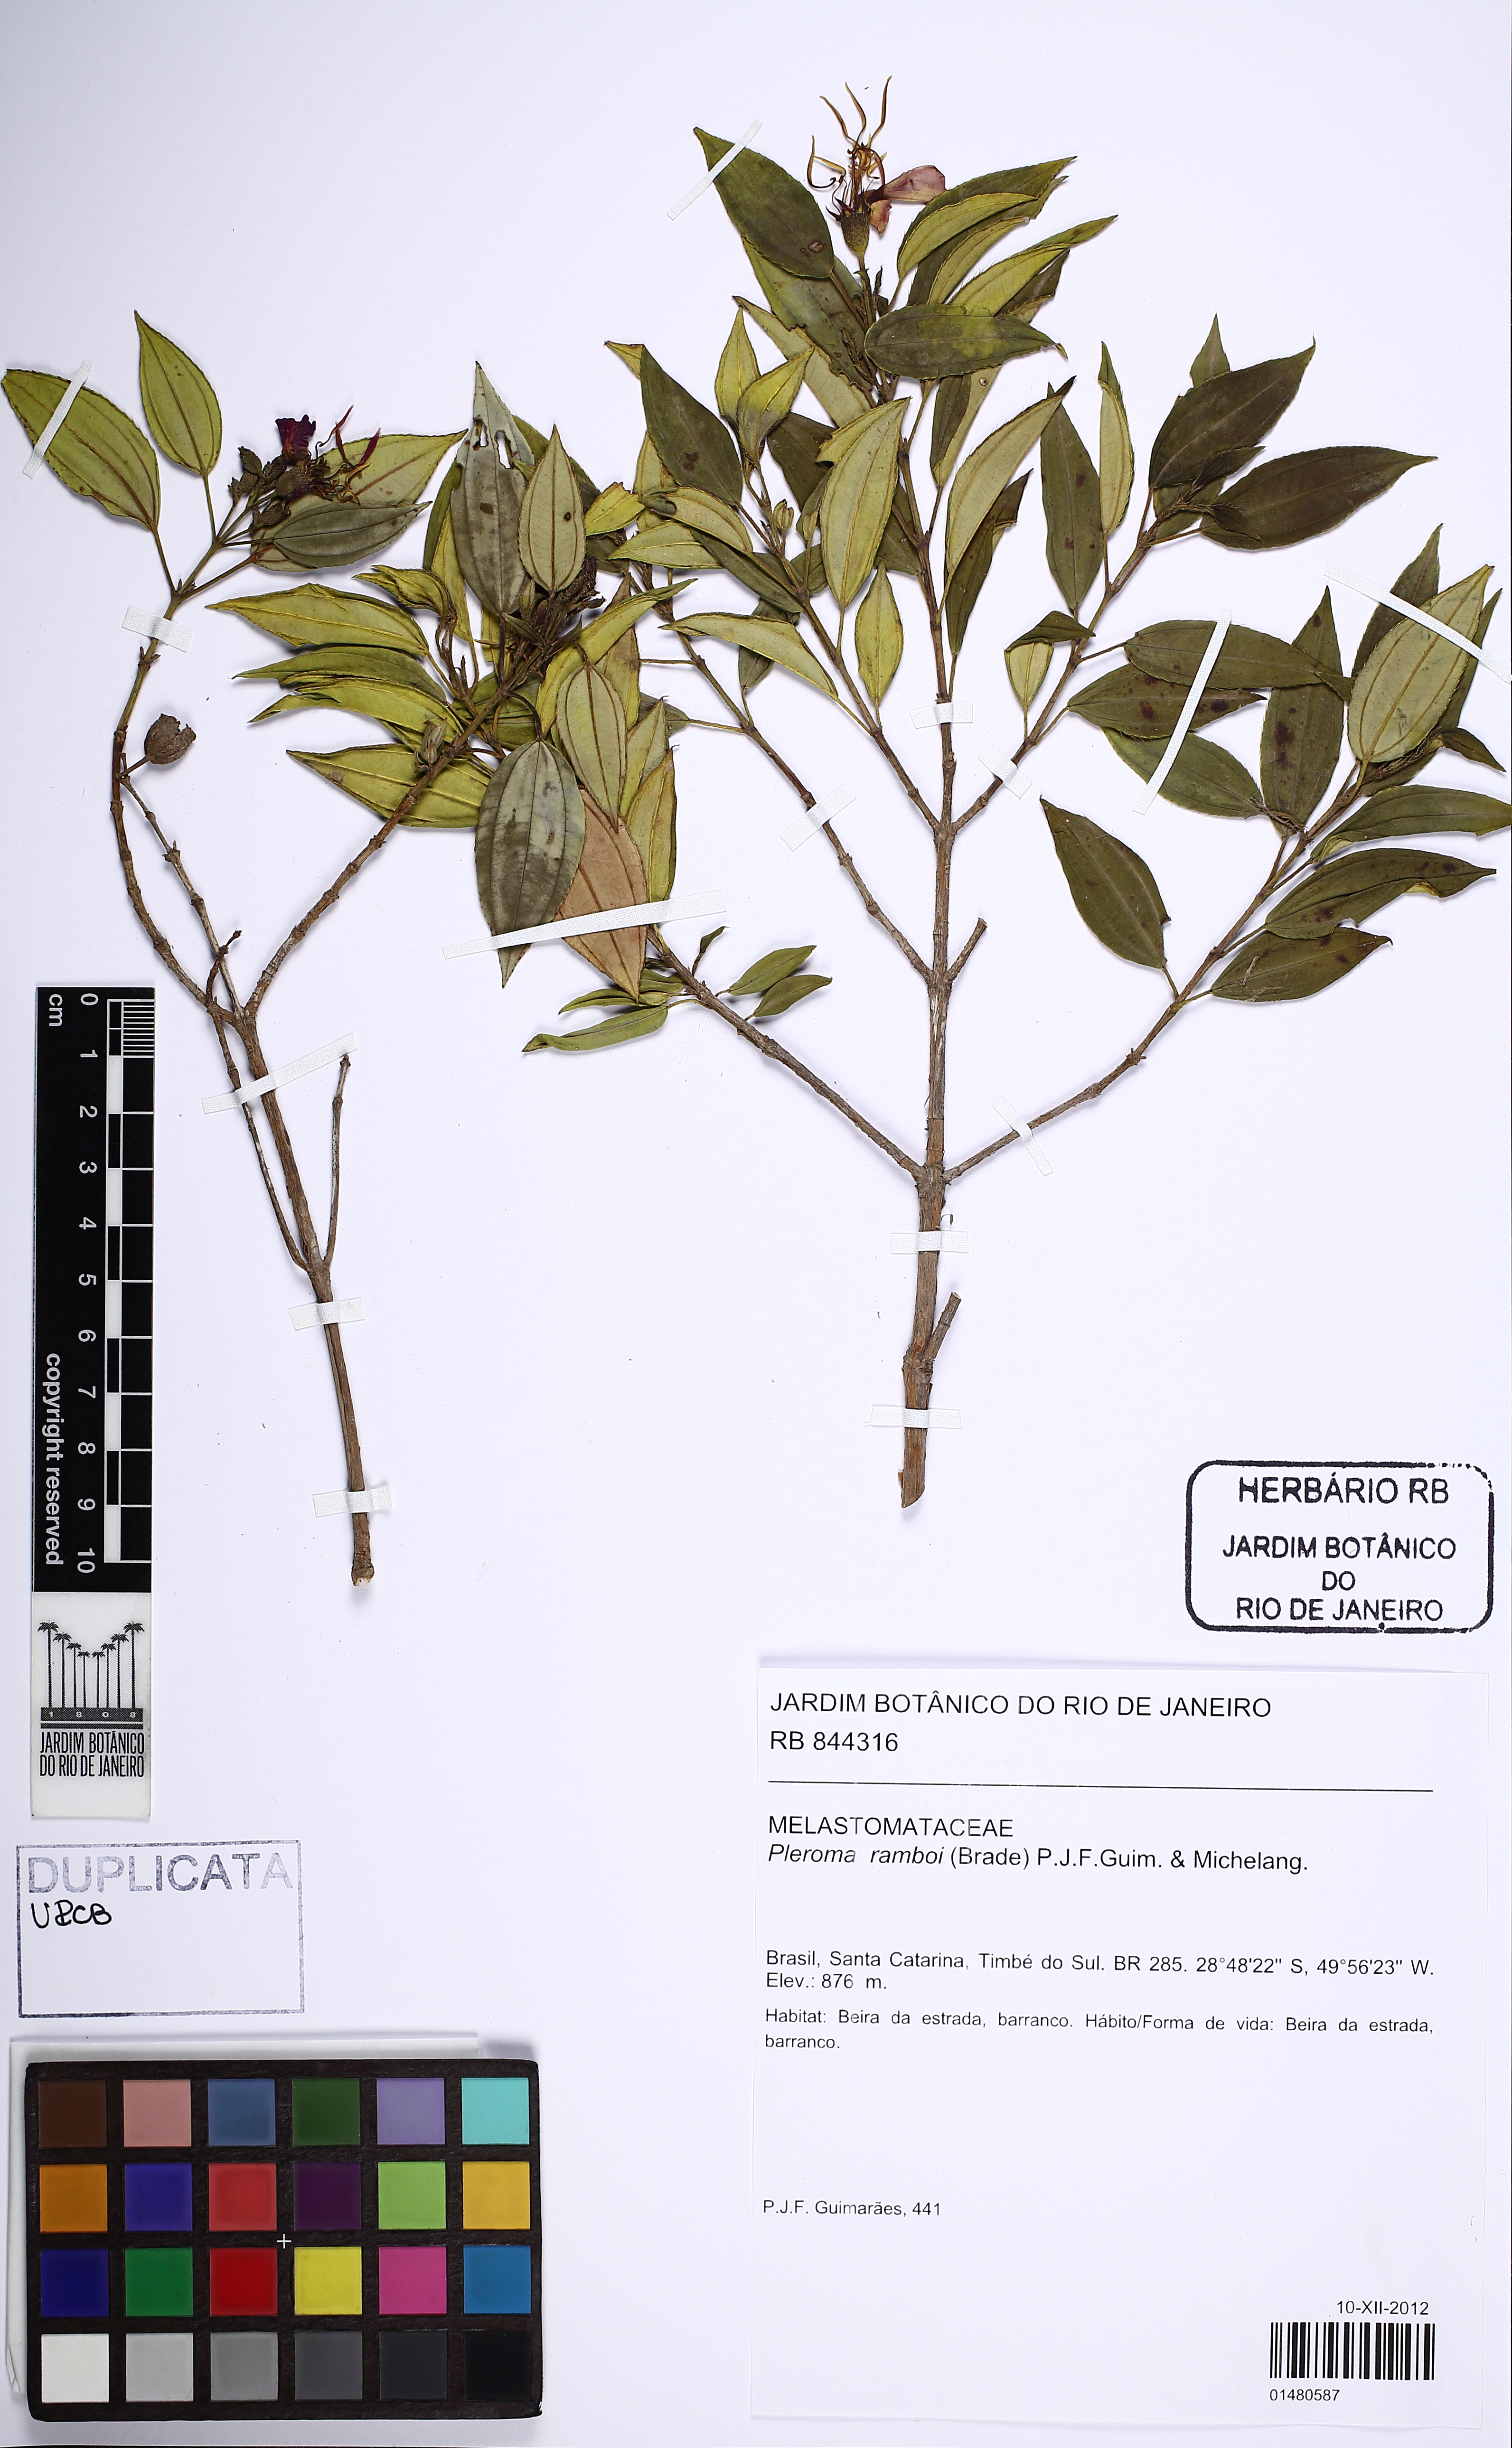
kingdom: Plantae
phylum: Tracheophyta
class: Magnoliopsida
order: Myrtales
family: Melastomataceae
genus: Pleroma
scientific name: Pleroma ramboi
